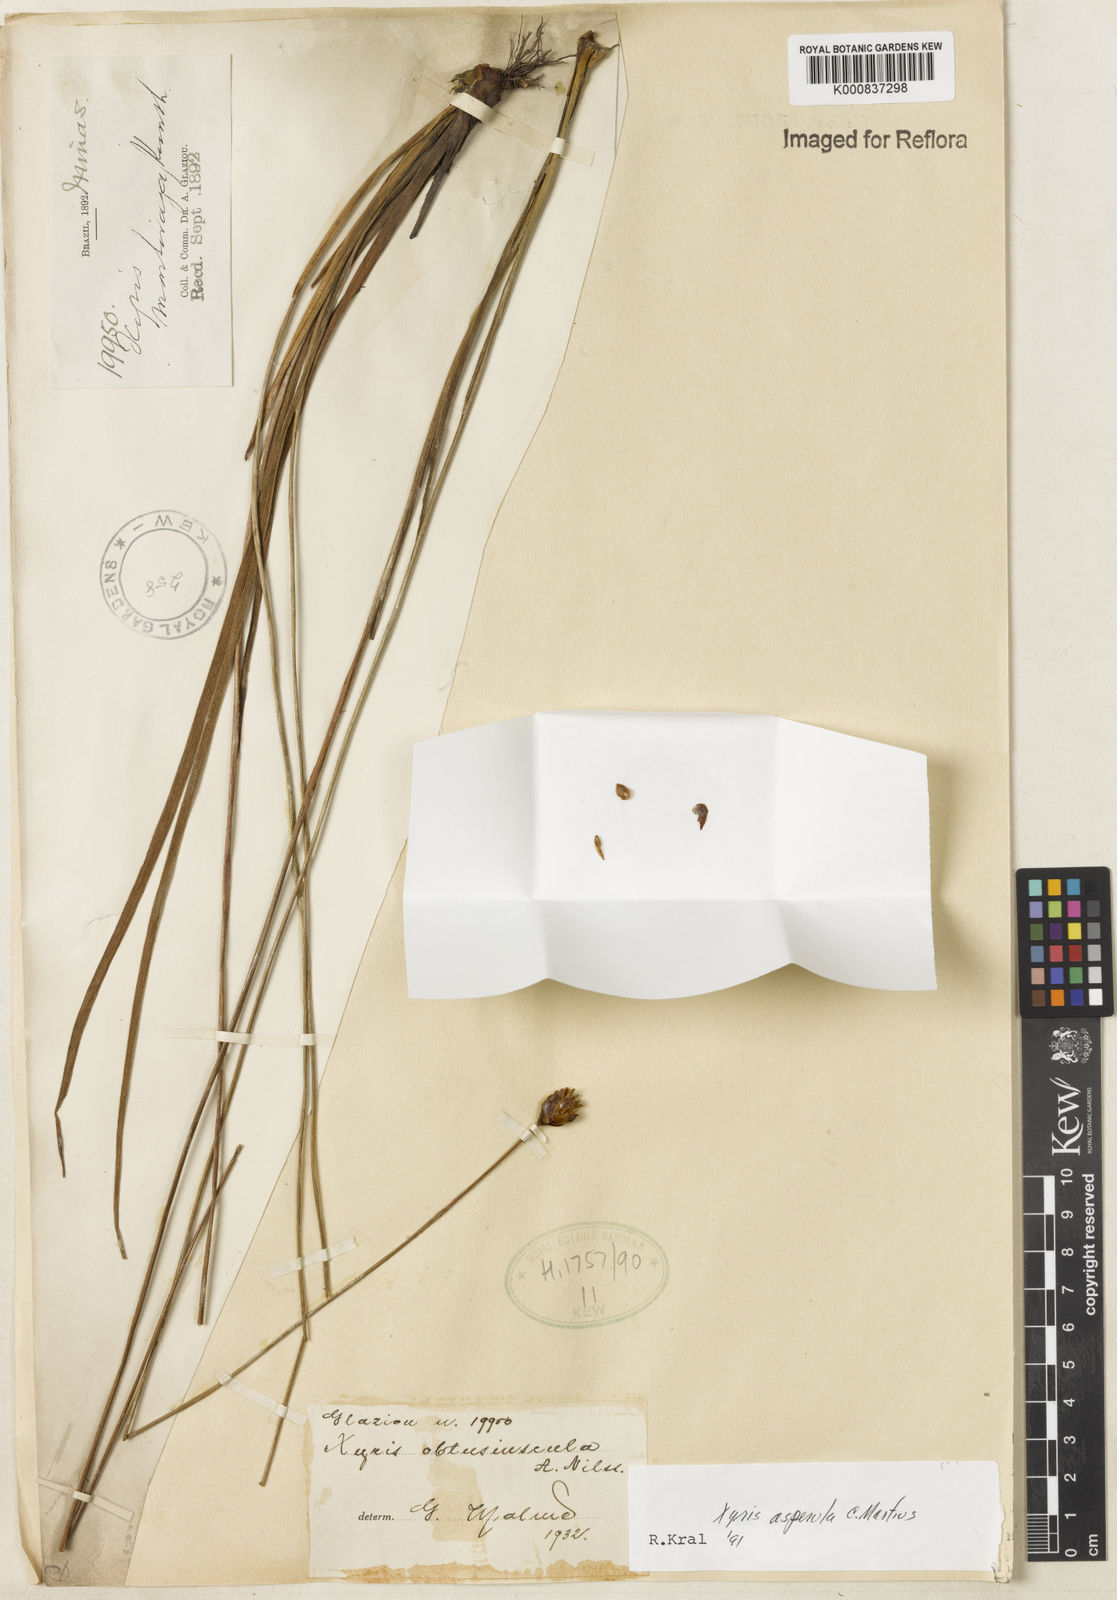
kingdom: Plantae
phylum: Tracheophyta
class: Liliopsida
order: Poales
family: Xyridaceae
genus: Xyris
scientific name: Xyris asperula
